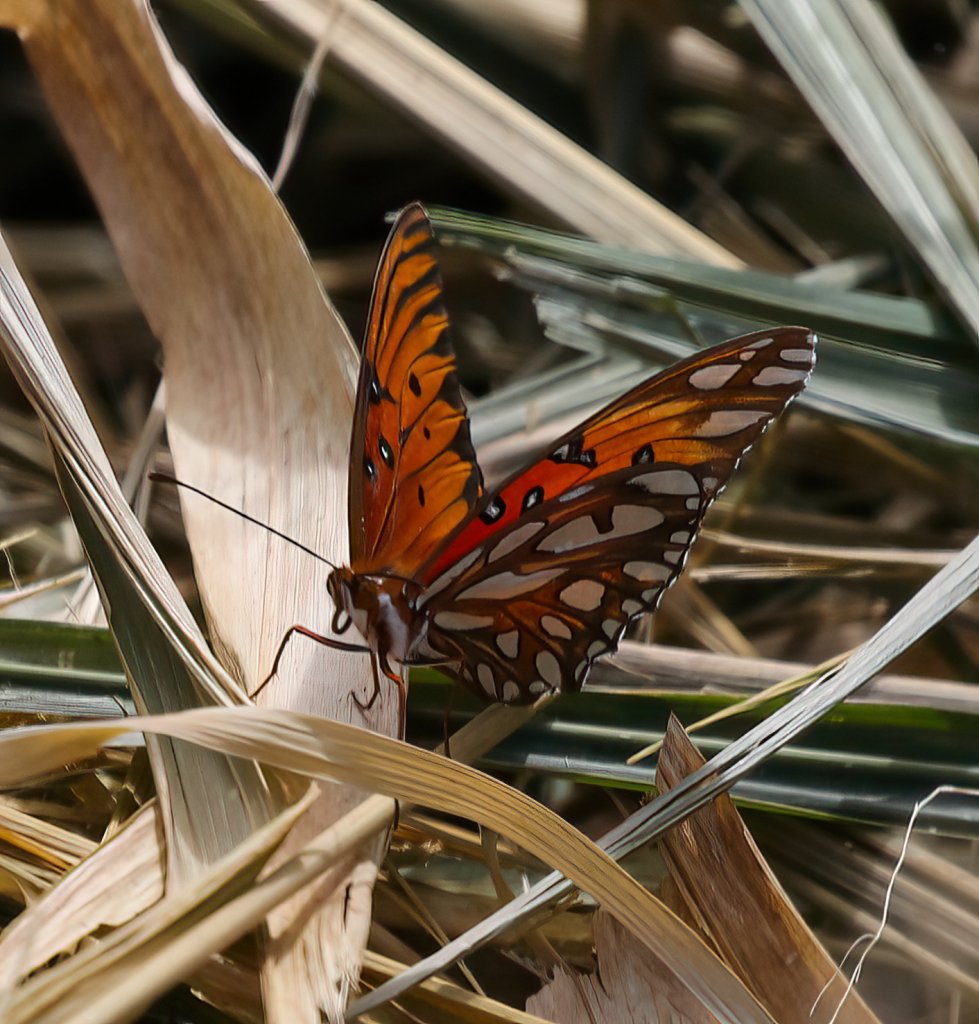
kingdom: Animalia
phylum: Arthropoda
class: Insecta
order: Lepidoptera
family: Nymphalidae
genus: Dione
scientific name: Dione vanillae
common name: Gulf Fritillary
